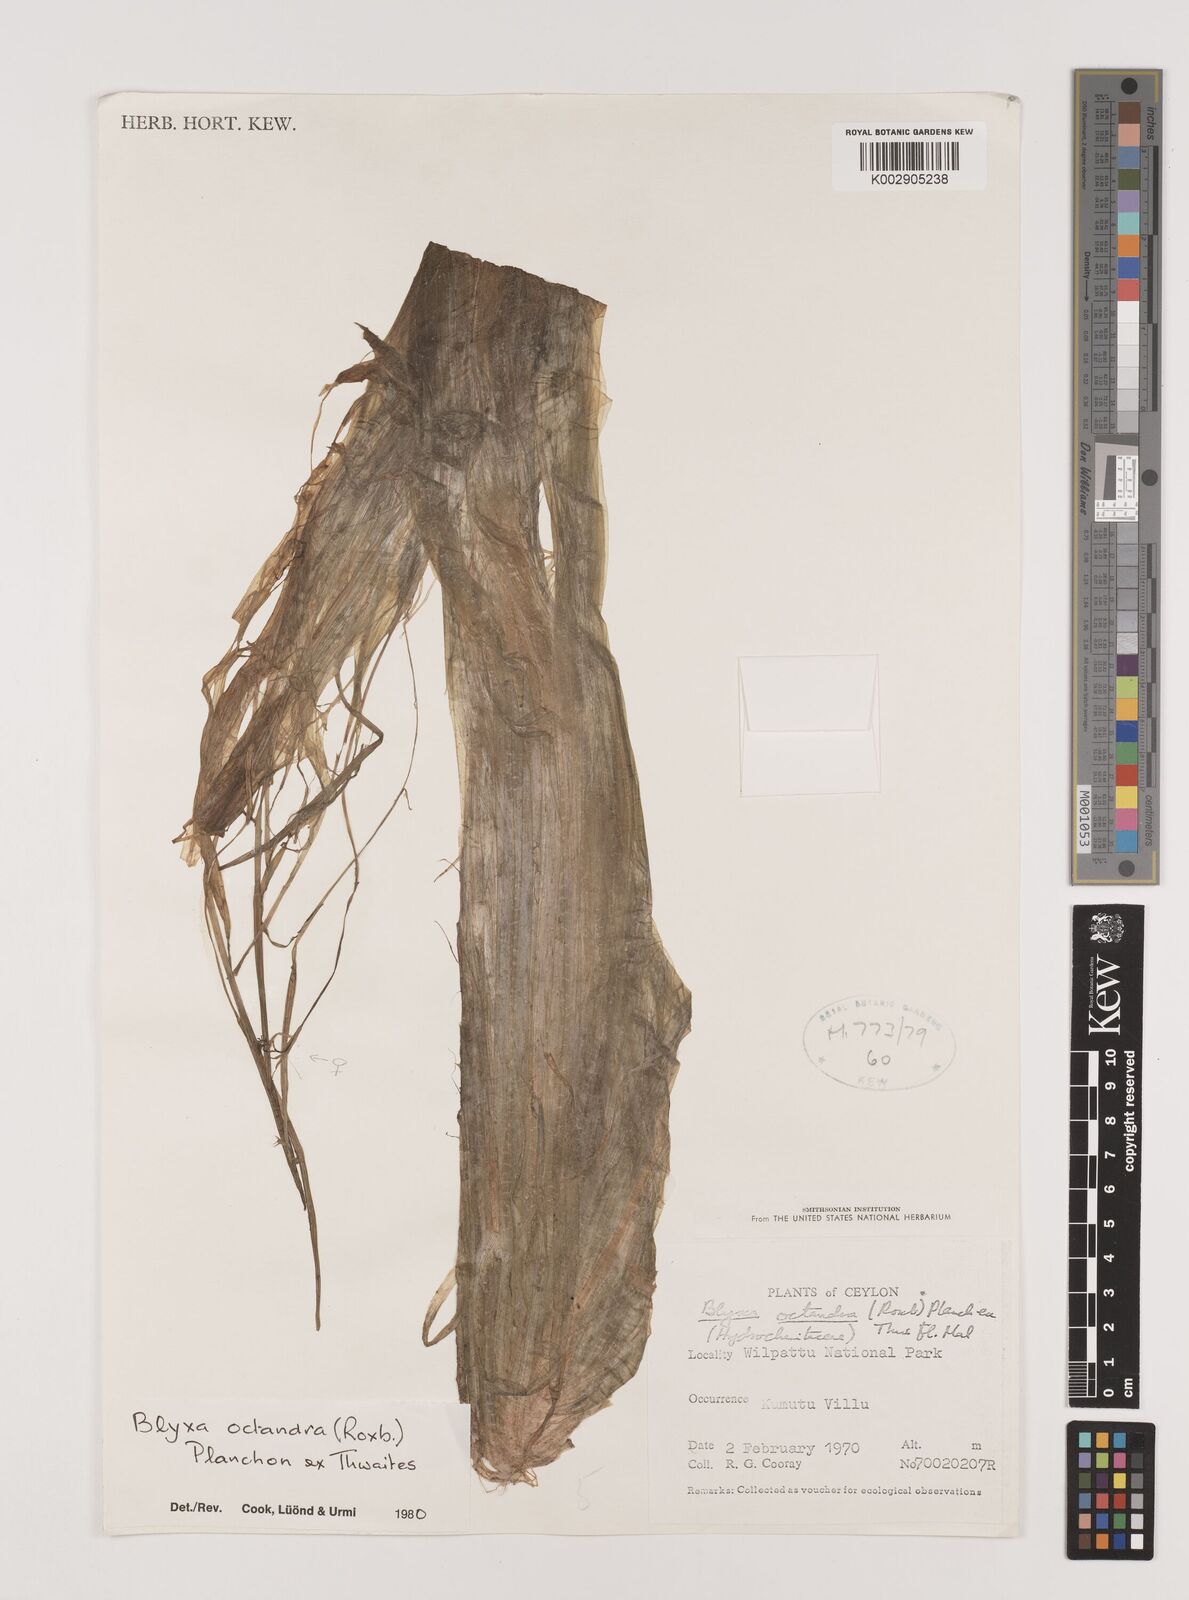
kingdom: Plantae
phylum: Tracheophyta
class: Liliopsida
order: Alismatales
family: Hydrocharitaceae
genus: Blyxa
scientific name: Blyxa octandra
